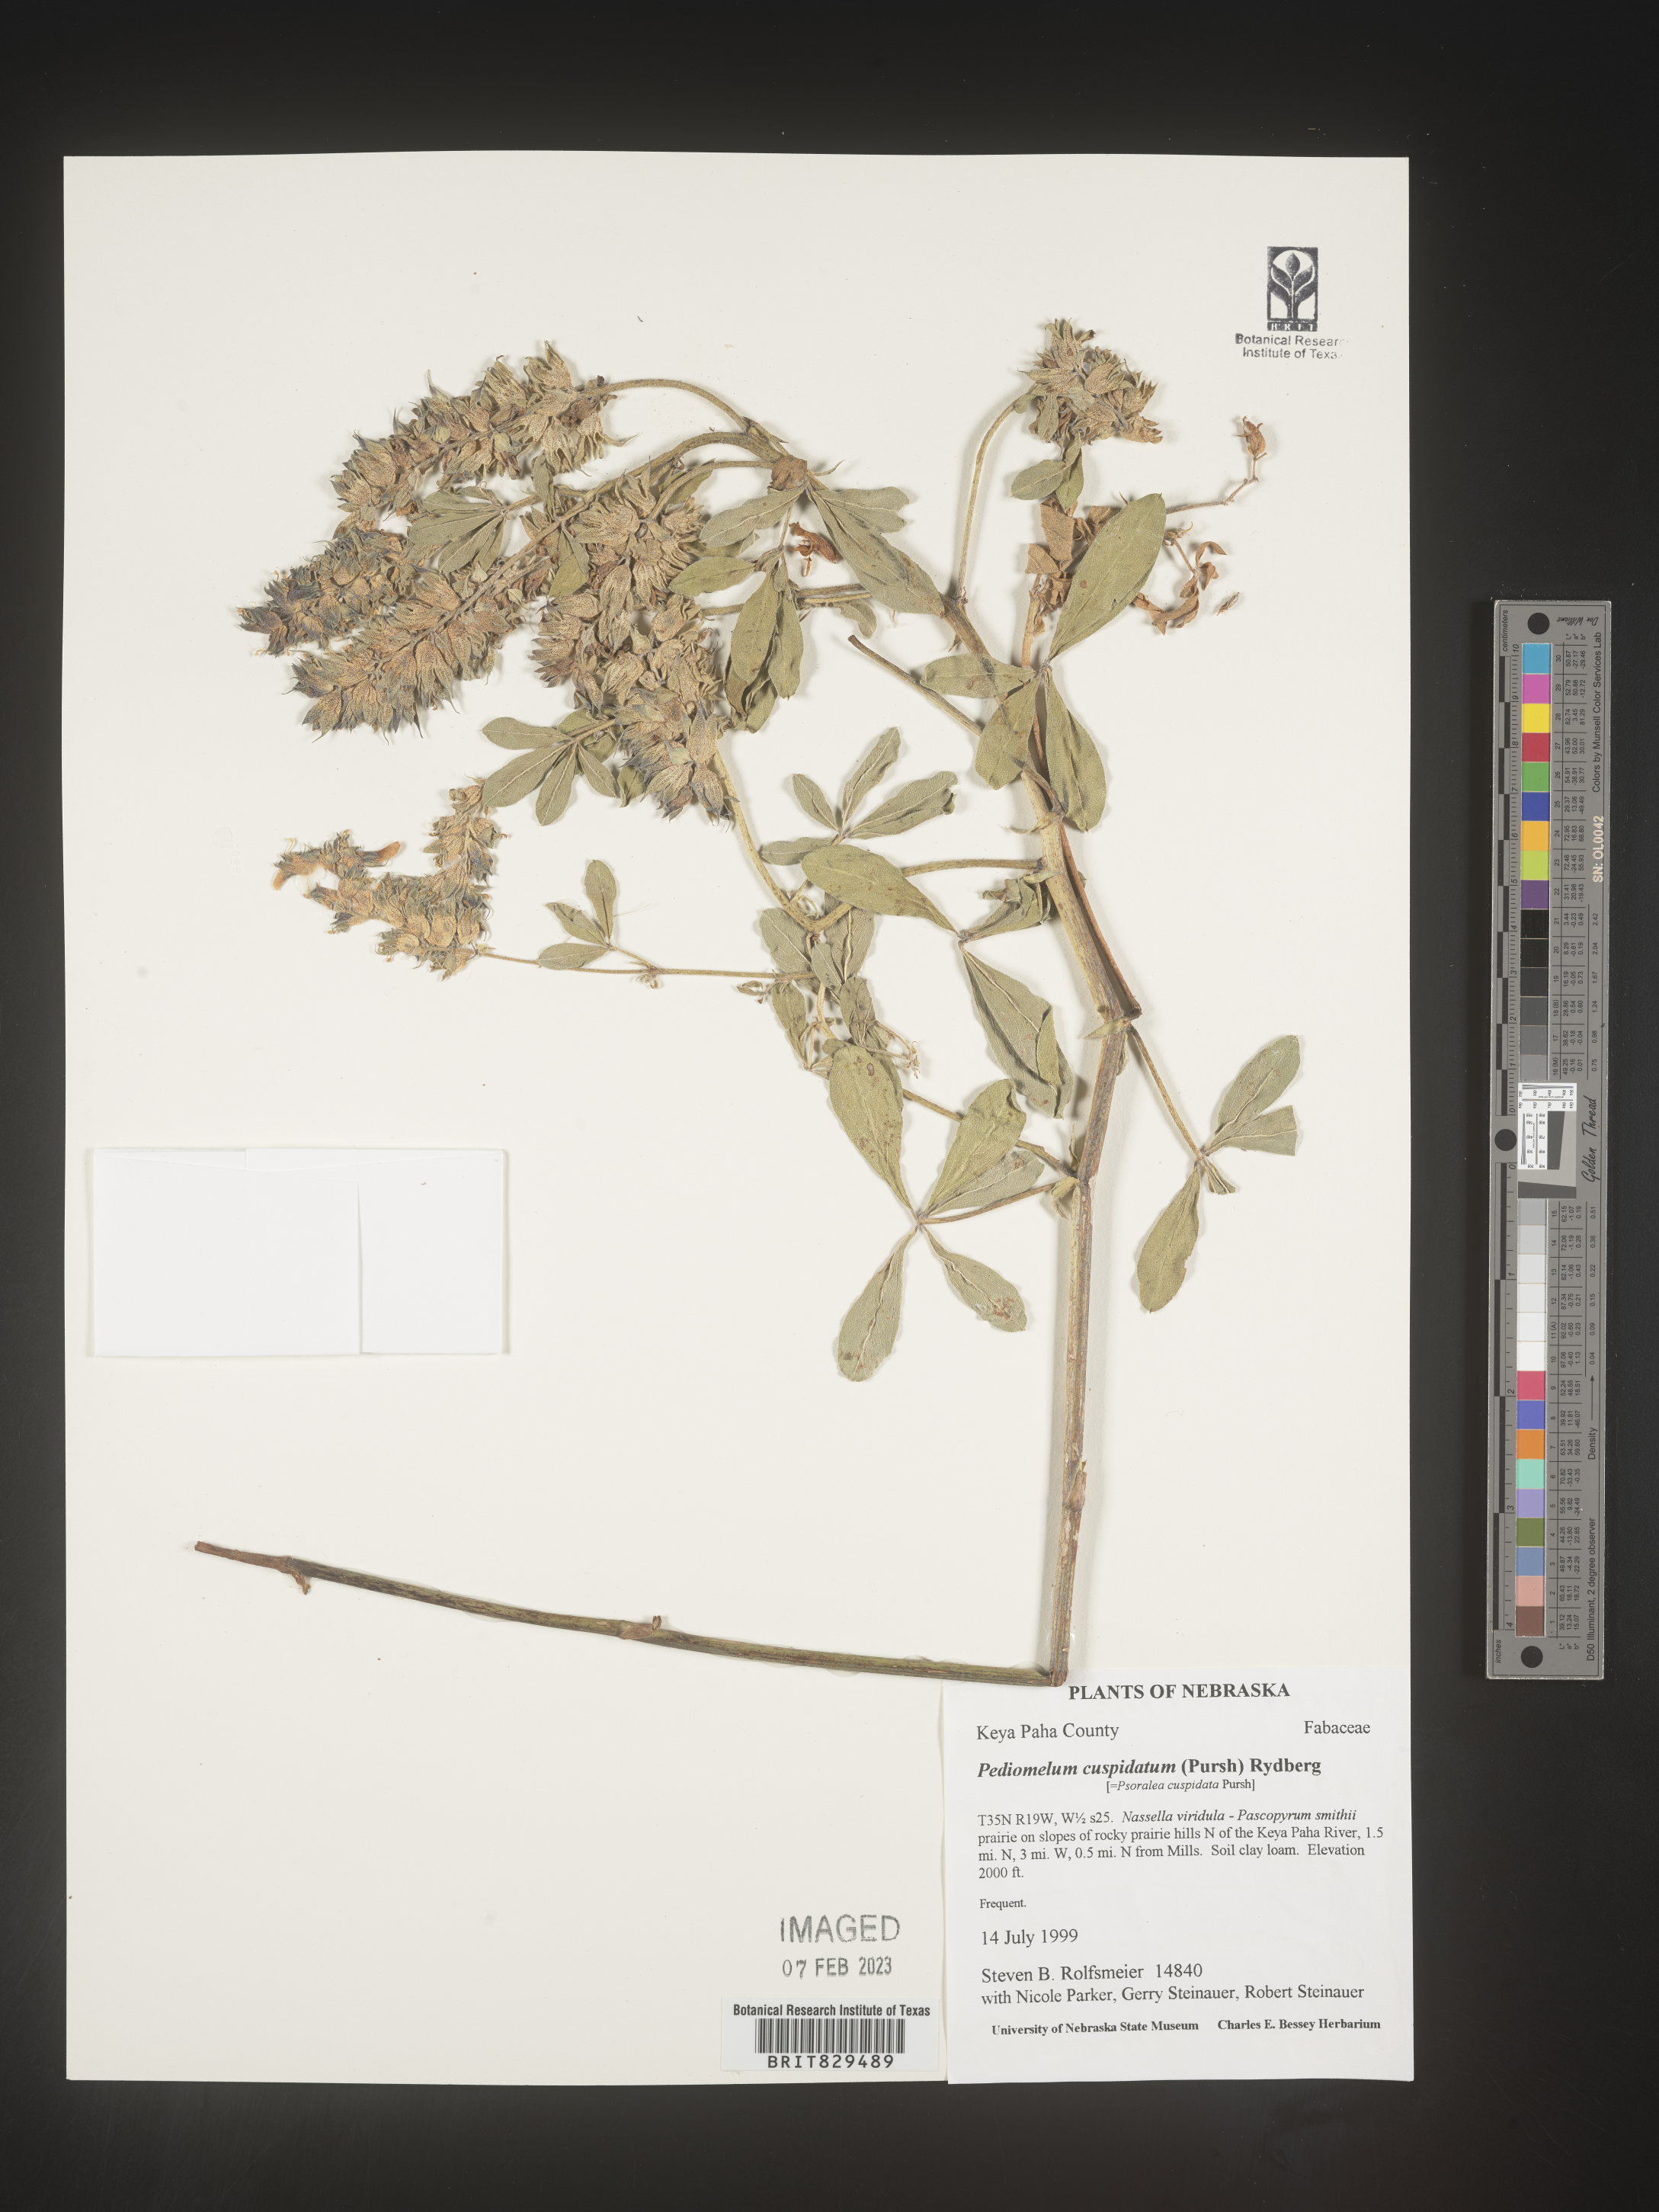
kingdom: Plantae
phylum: Tracheophyta
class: Magnoliopsida
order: Fabales
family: Fabaceae
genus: Pediomelum
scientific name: Pediomelum cuspidatum
